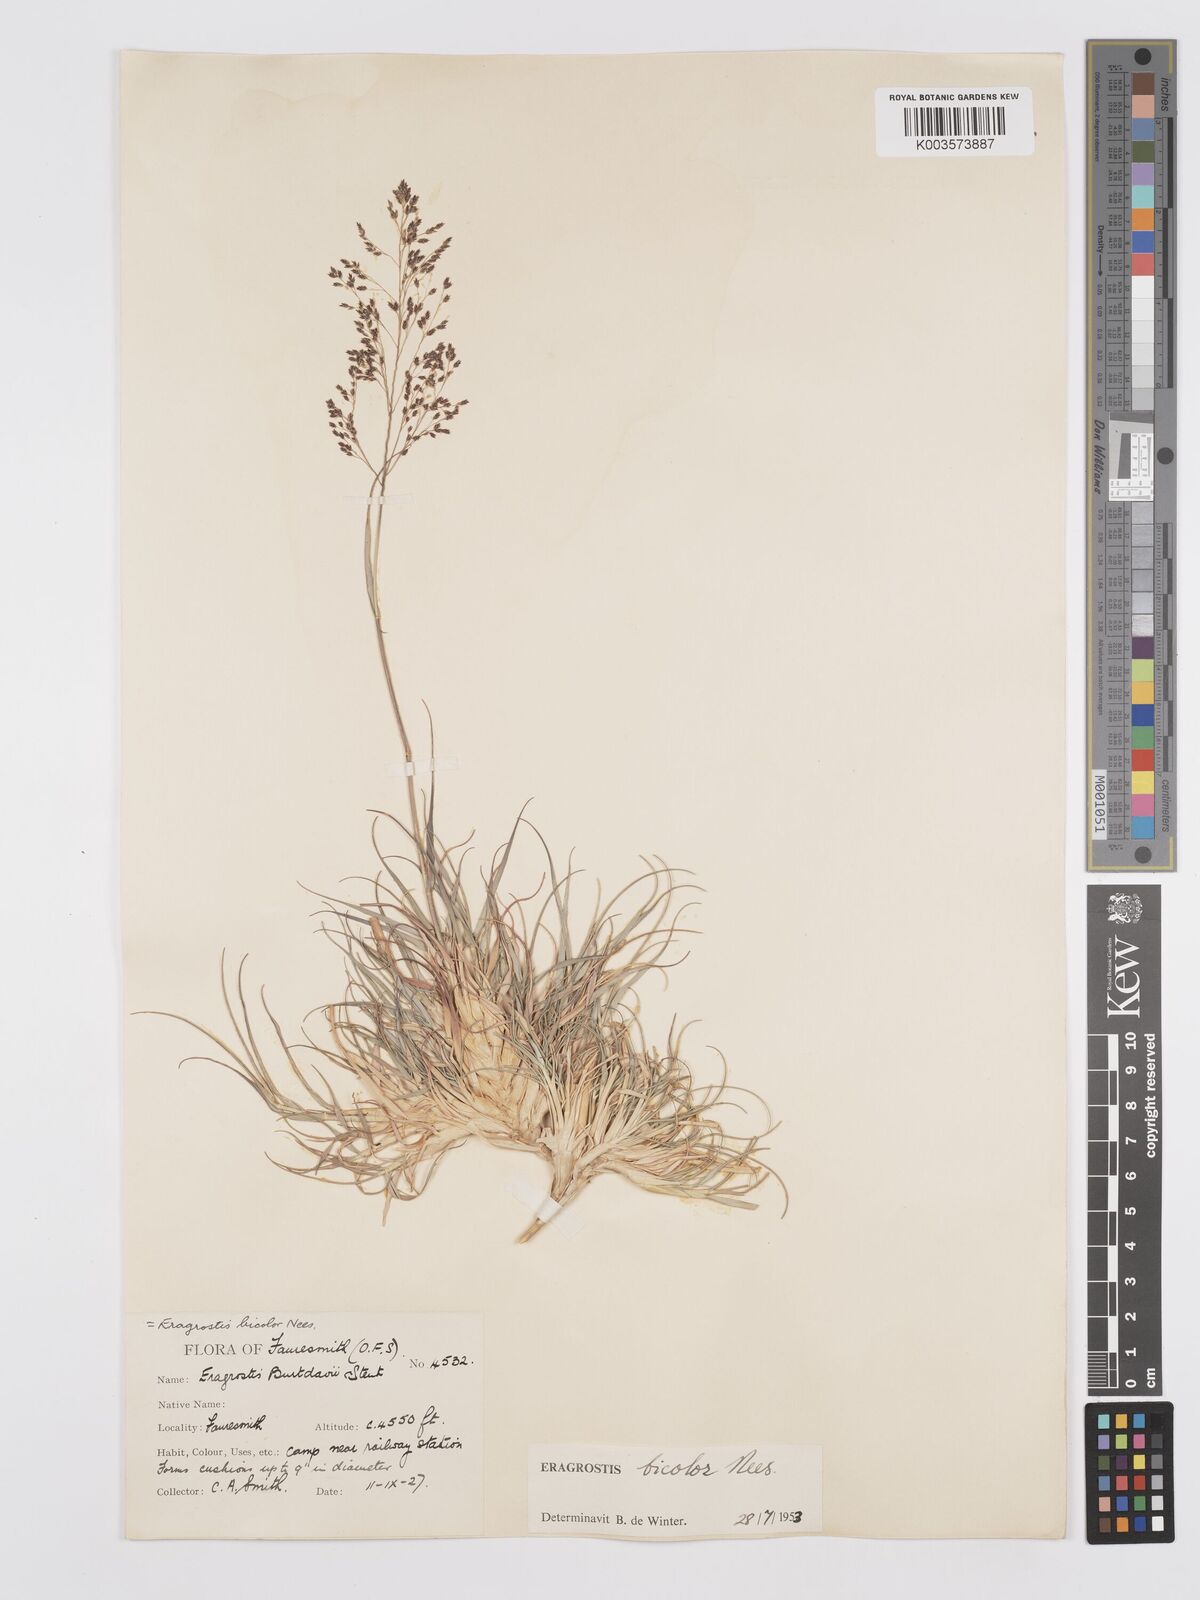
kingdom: Plantae
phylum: Tracheophyta
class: Liliopsida
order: Poales
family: Poaceae
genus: Eragrostis
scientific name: Eragrostis
